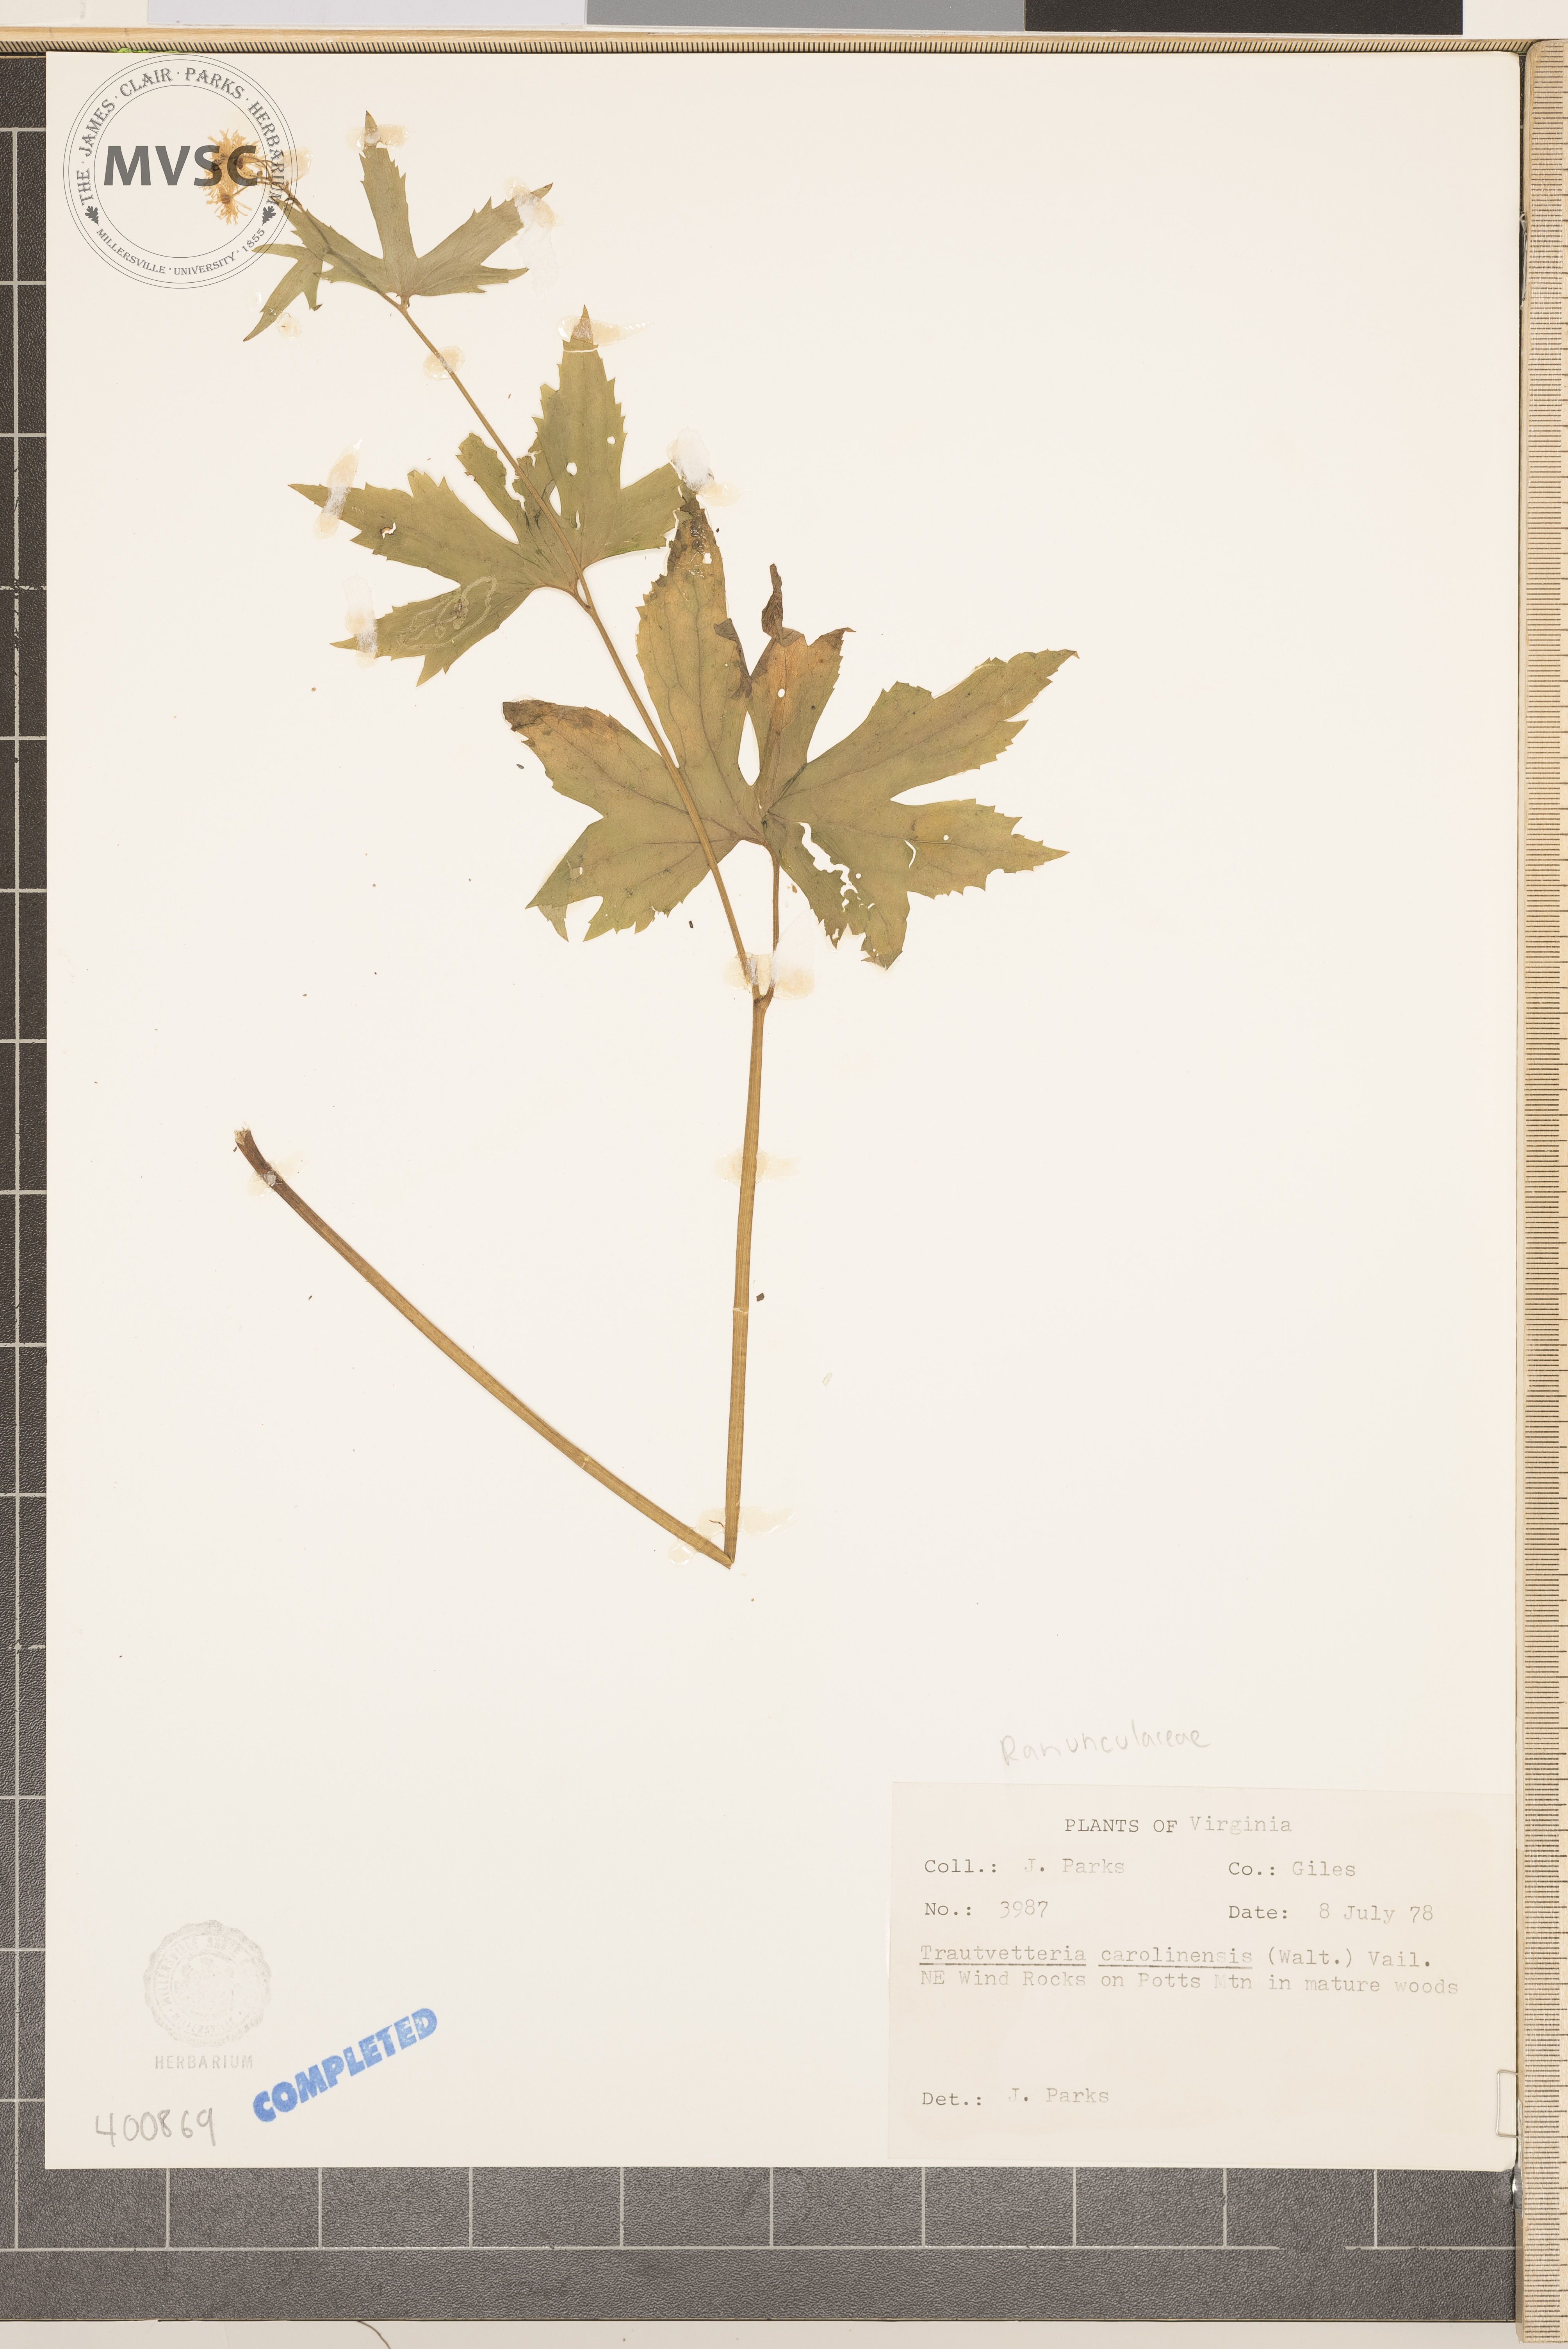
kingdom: Plantae
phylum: Tracheophyta
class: Magnoliopsida
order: Ranunculales
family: Ranunculaceae
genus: Trautvetteria
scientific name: Trautvetteria carolinensis
